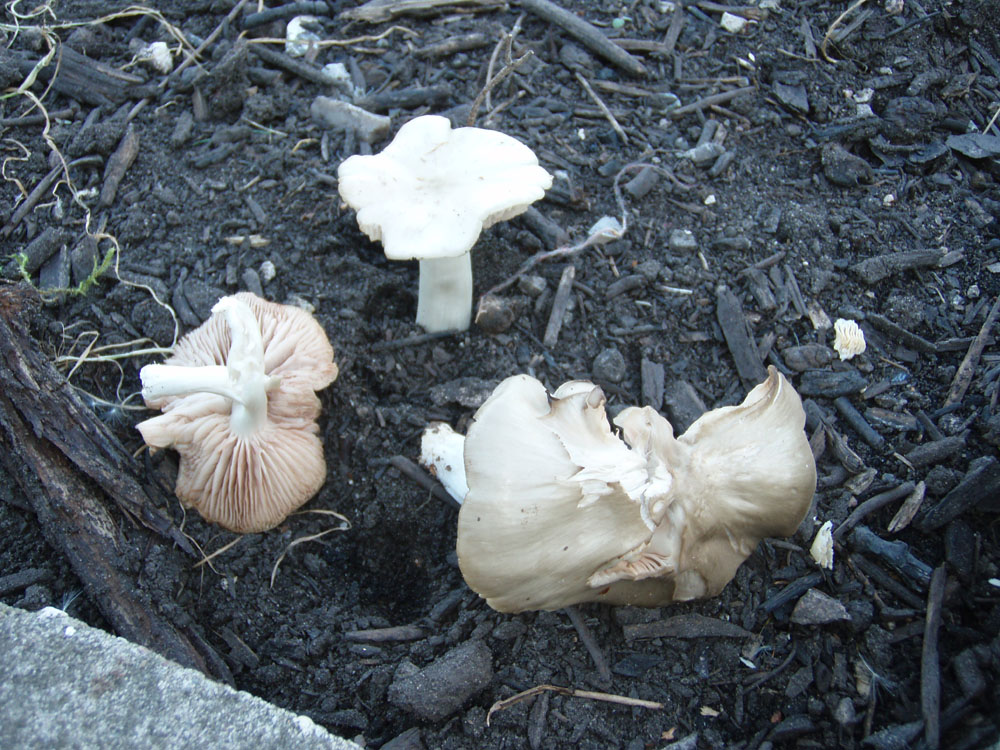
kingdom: Fungi
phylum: Basidiomycota
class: Agaricomycetes
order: Agaricales
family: Entolomataceae
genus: Entoloma
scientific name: Entoloma rhodopolium
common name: skov-rødblad
